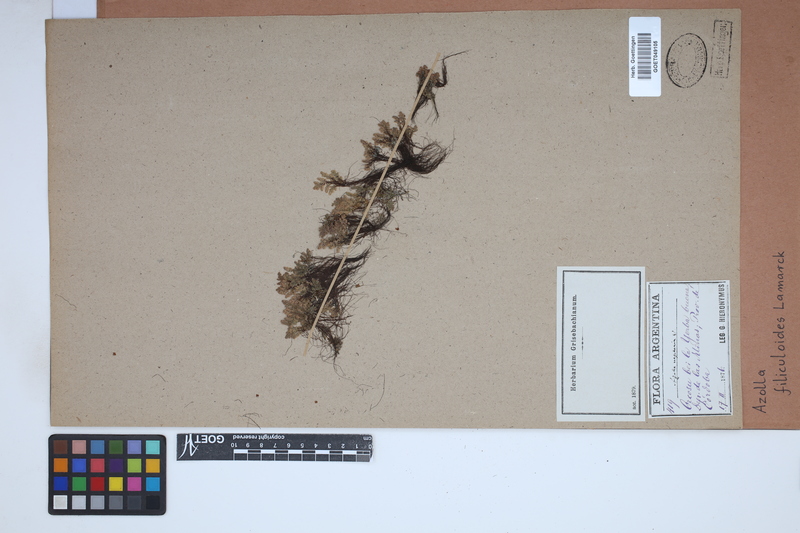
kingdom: Plantae
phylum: Tracheophyta
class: Polypodiopsida
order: Salviniales
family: Salviniaceae
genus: Azolla
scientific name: Azolla filiculoides
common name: Water fern
